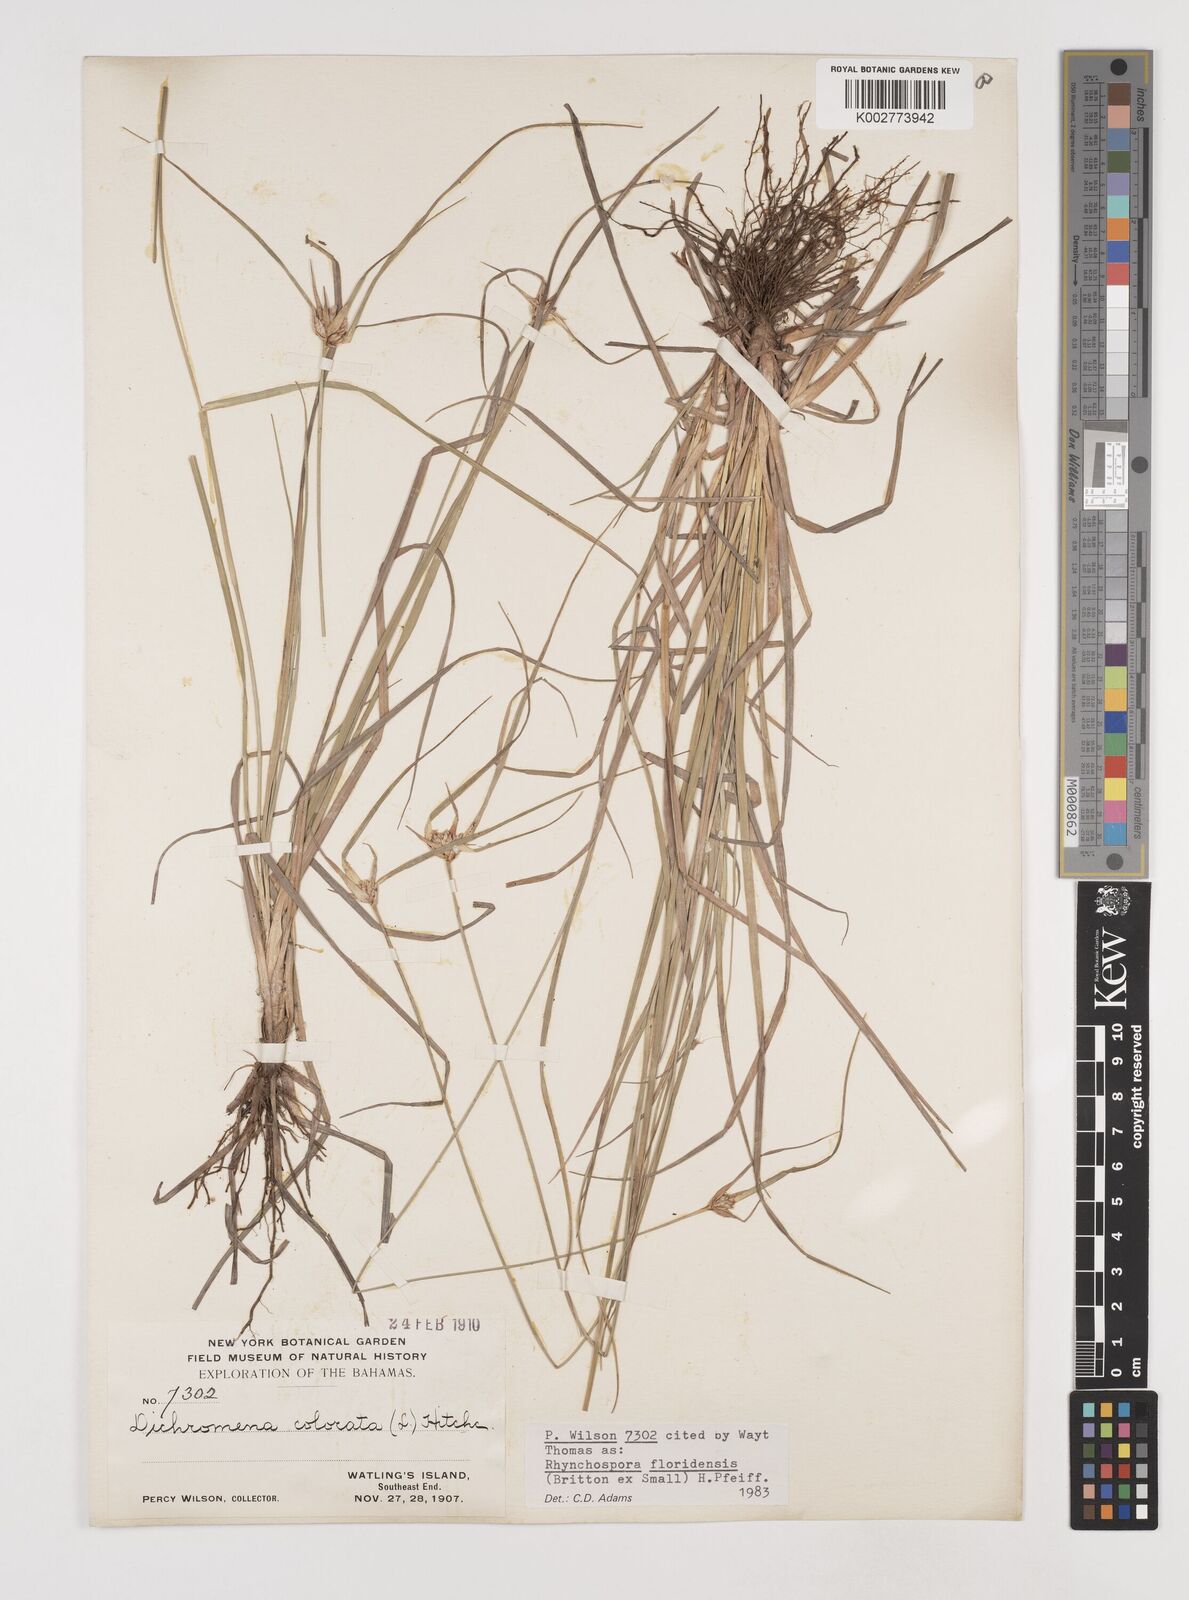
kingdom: Plantae
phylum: Tracheophyta
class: Liliopsida
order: Poales
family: Cyperaceae
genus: Rhynchospora
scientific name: Rhynchospora floridensis
